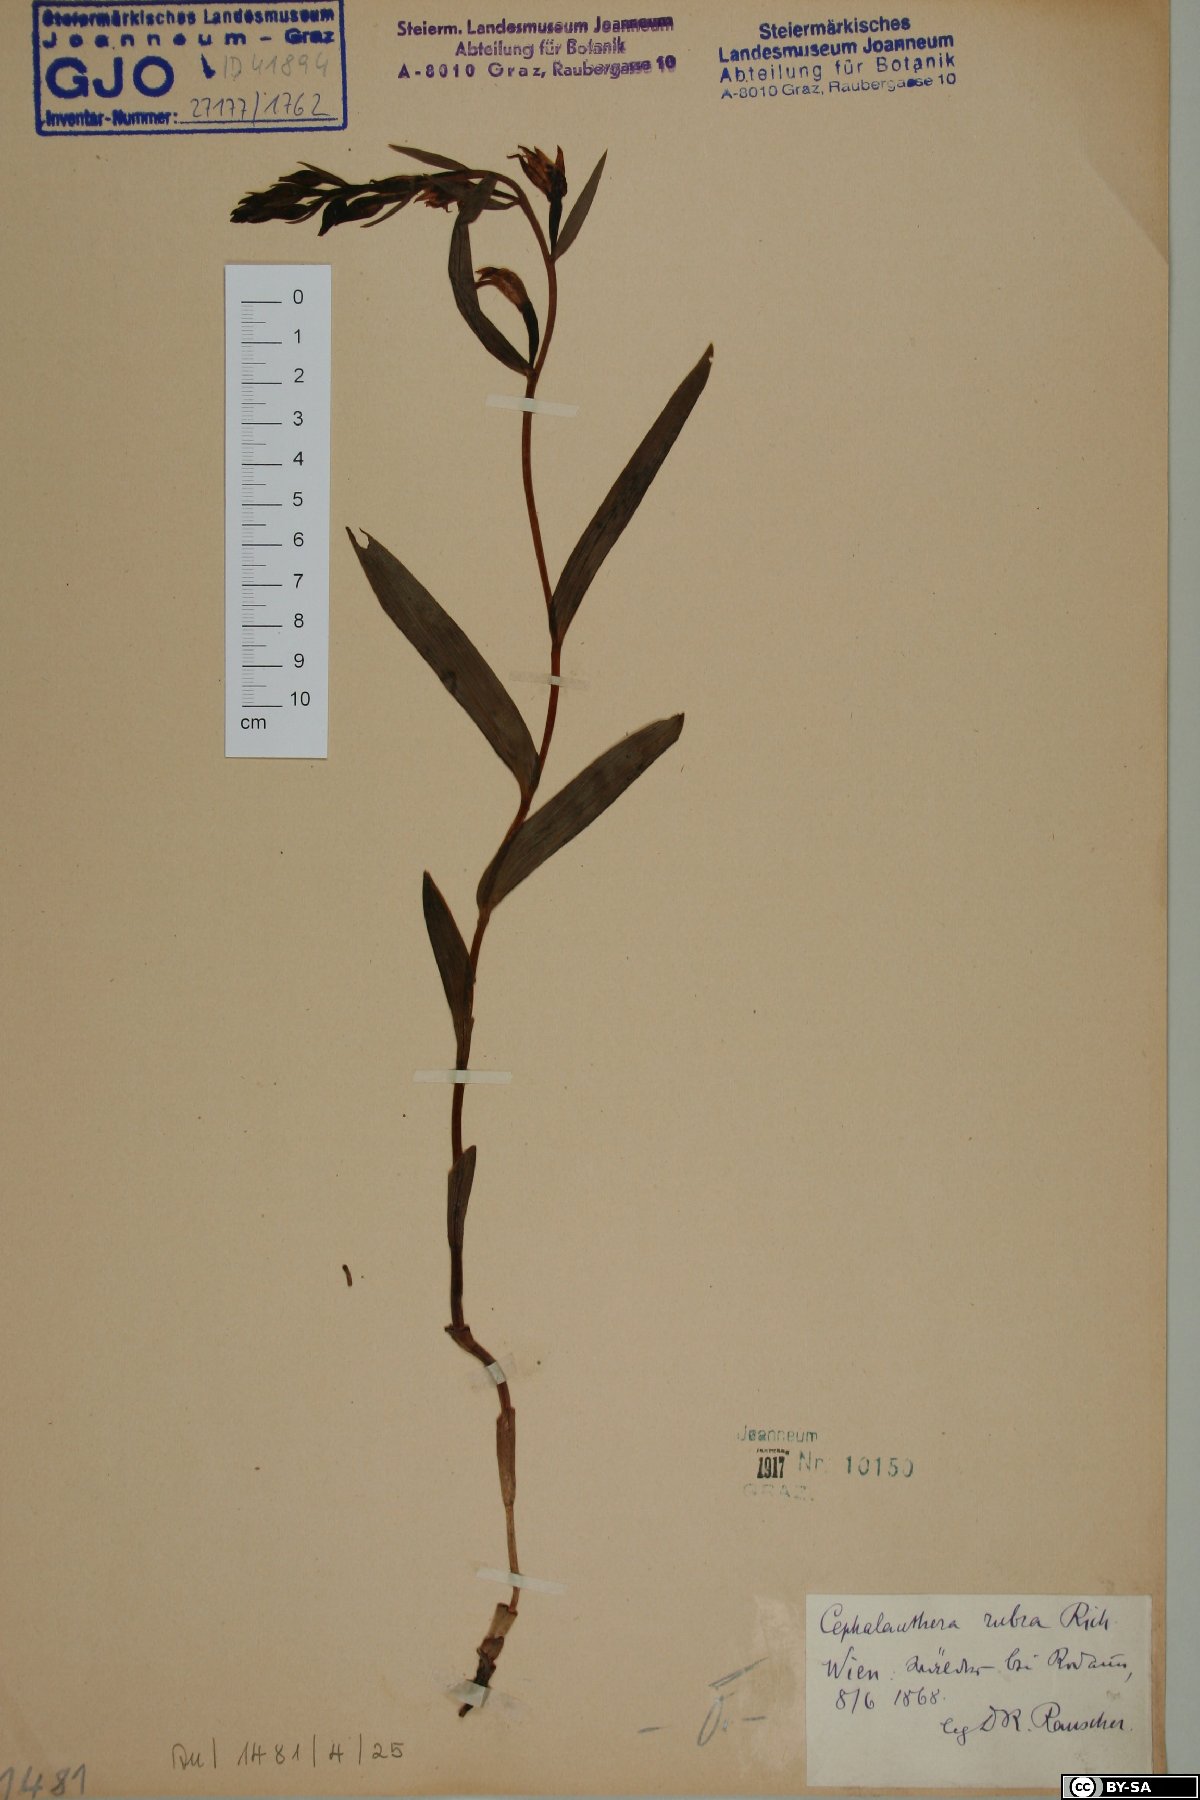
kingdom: Plantae
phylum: Tracheophyta
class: Liliopsida
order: Asparagales
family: Orchidaceae
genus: Cephalanthera
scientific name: Cephalanthera rubra
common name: Red helleborine
